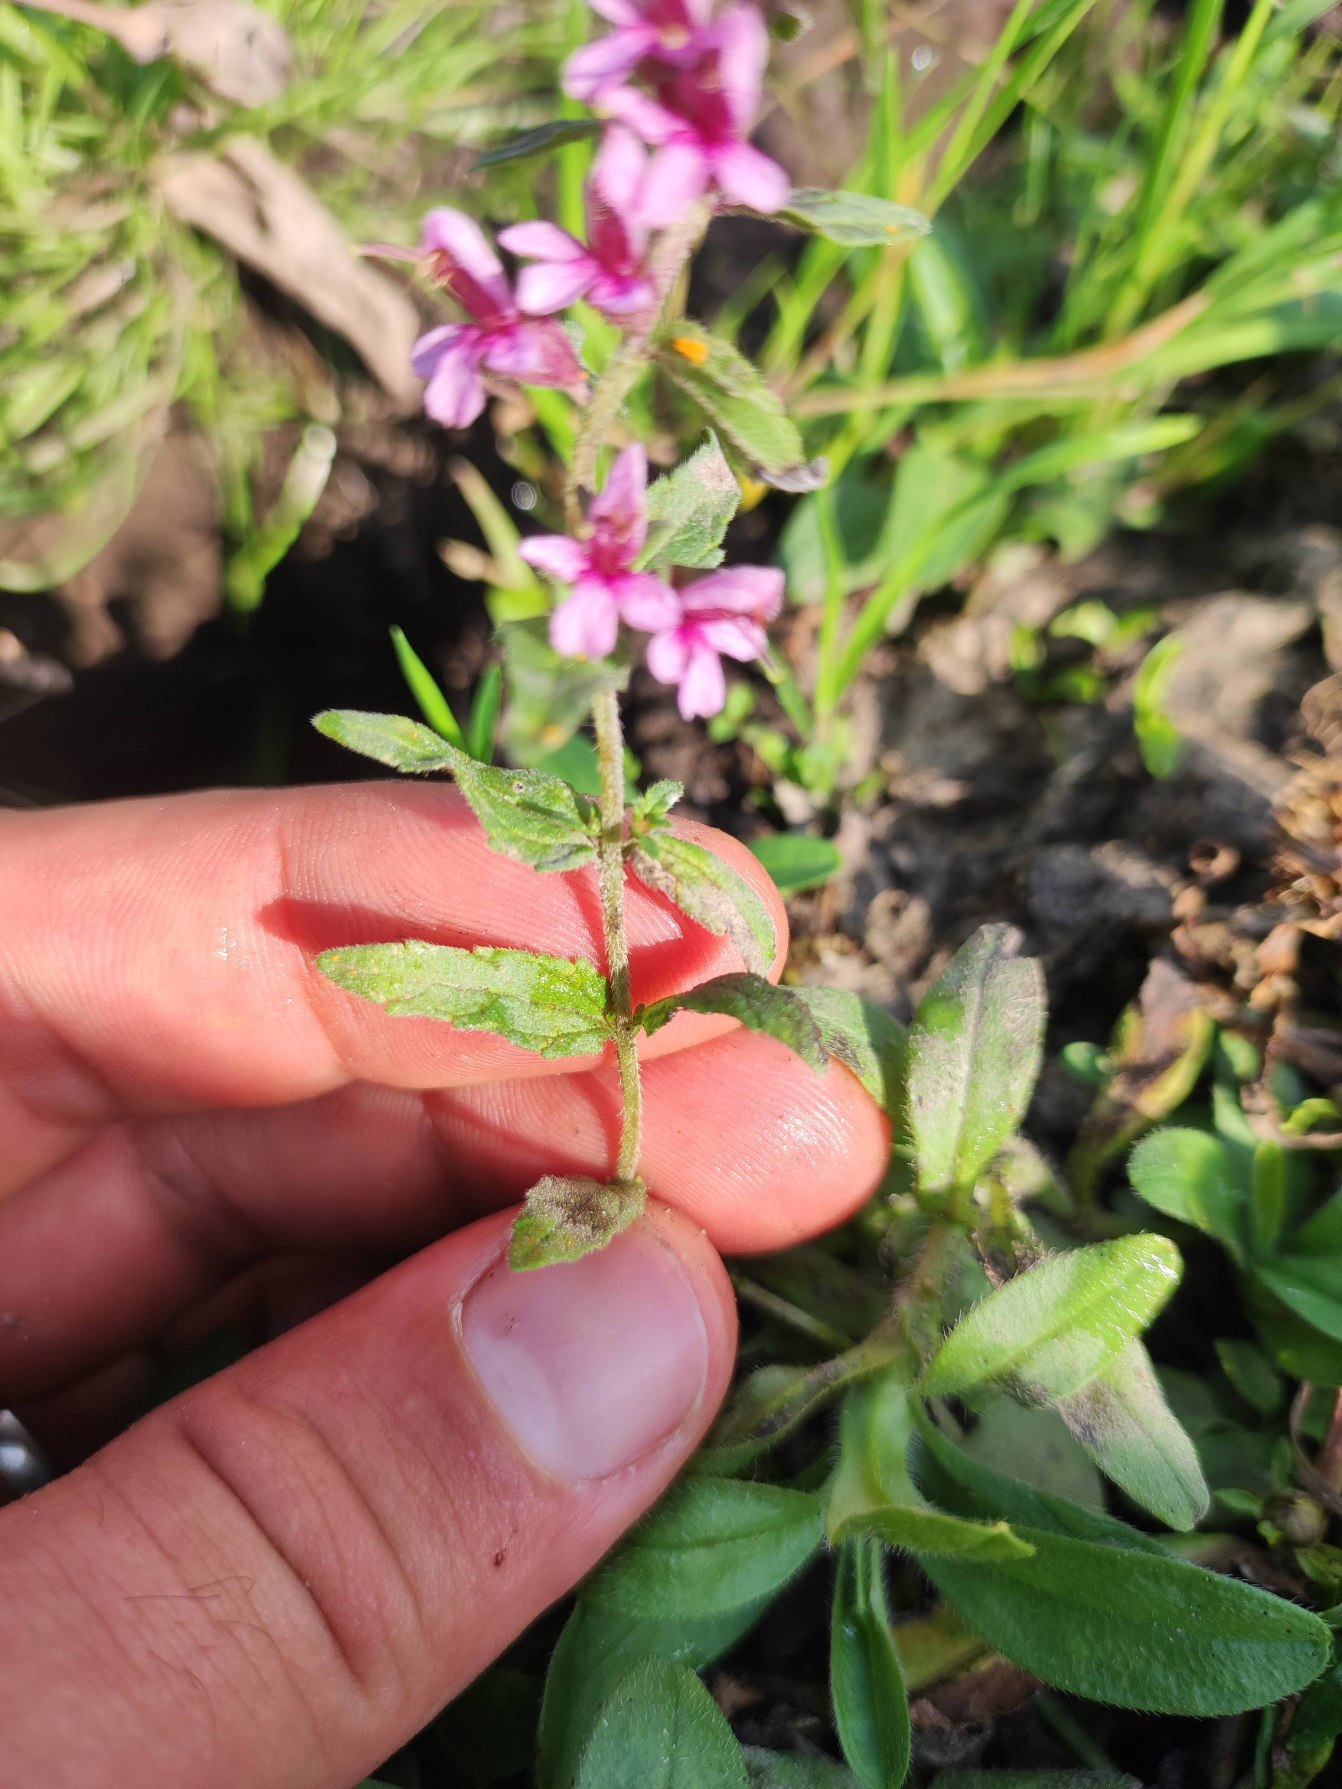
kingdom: Plantae
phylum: Tracheophyta
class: Magnoliopsida
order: Myrtales
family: Lythraceae
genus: Lythrum
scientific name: Lythrum salicaria
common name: Kattehale
